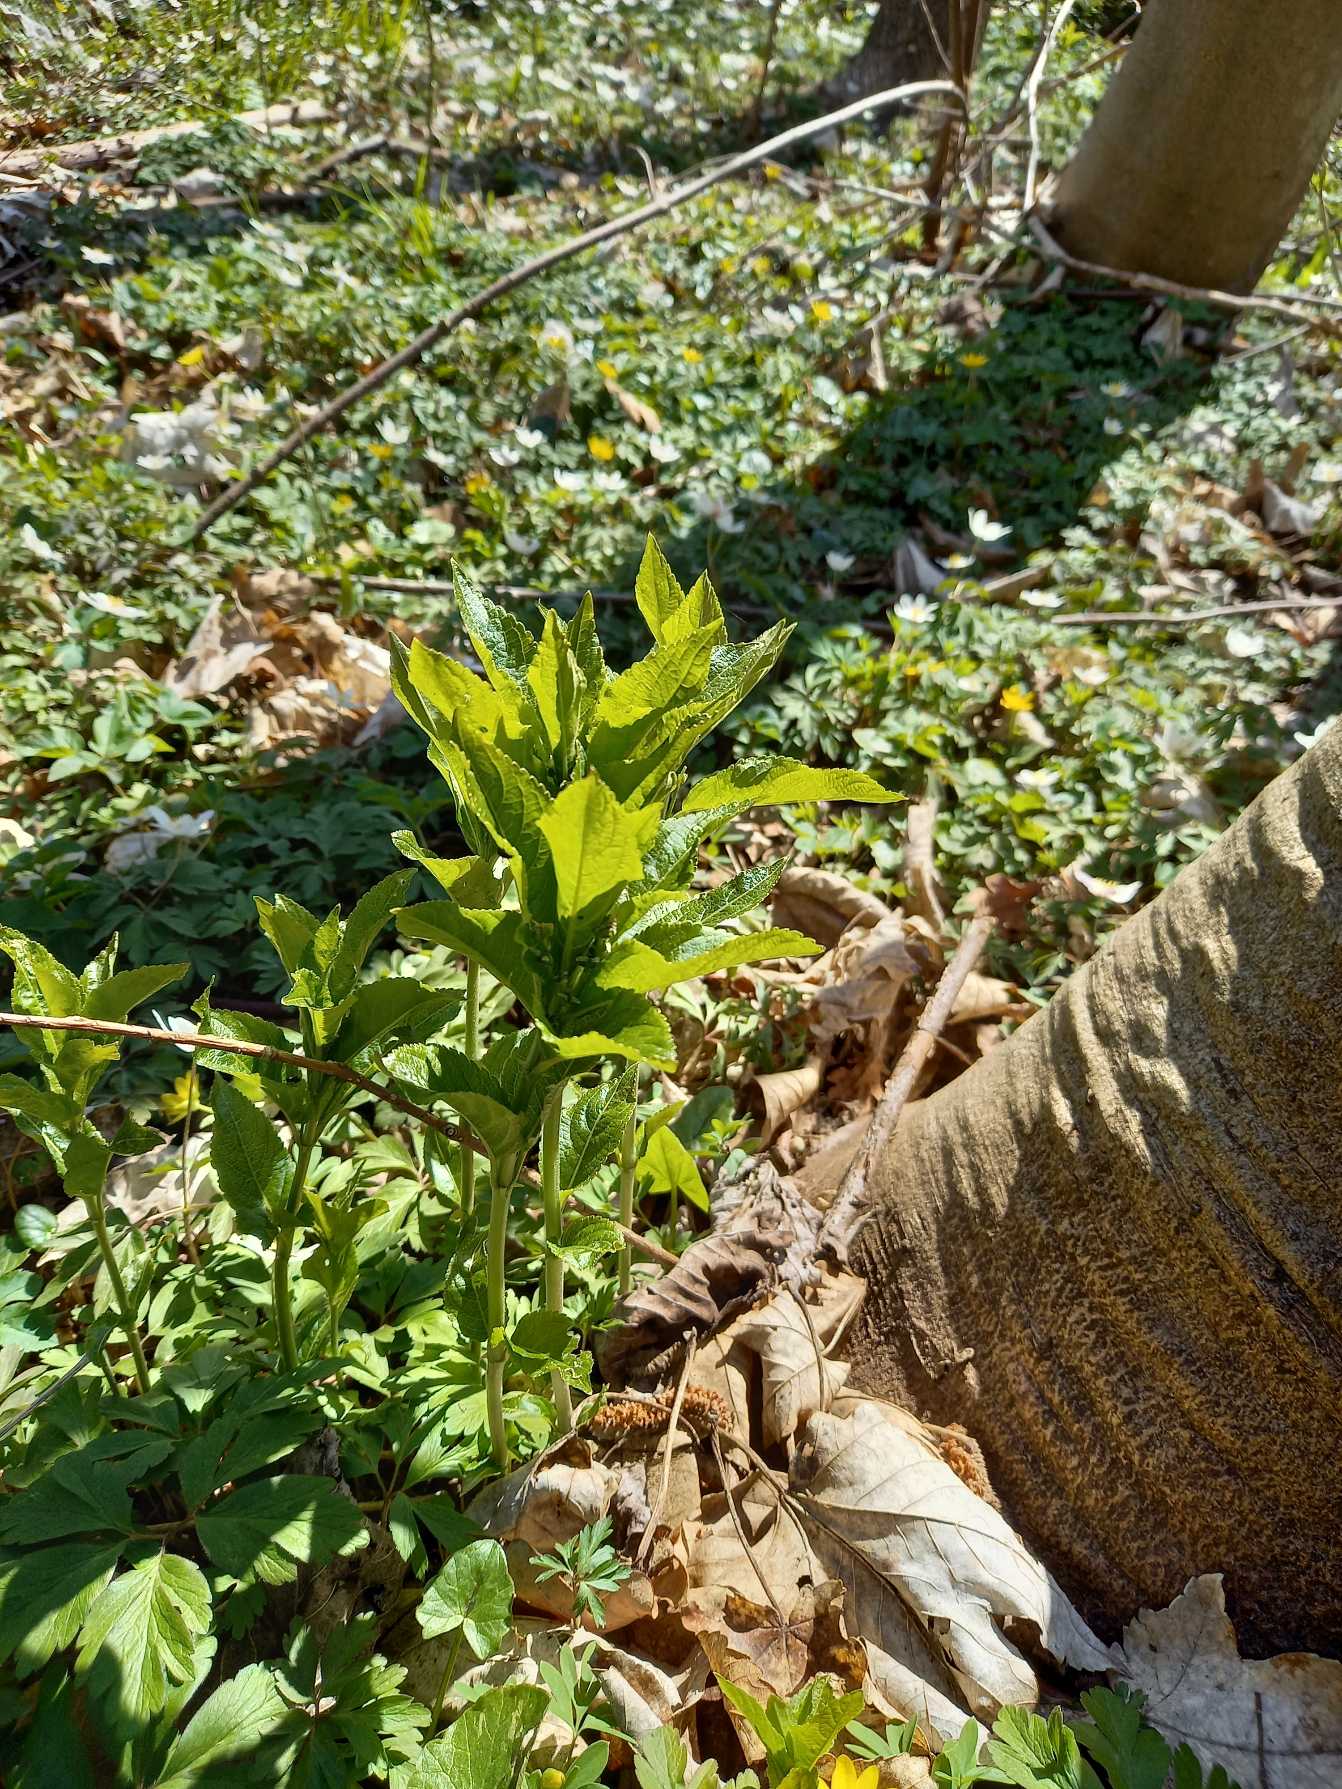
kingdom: Plantae
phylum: Tracheophyta
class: Magnoliopsida
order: Malpighiales
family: Euphorbiaceae
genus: Mercurialis
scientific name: Mercurialis perennis
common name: Almindelig bingelurt
